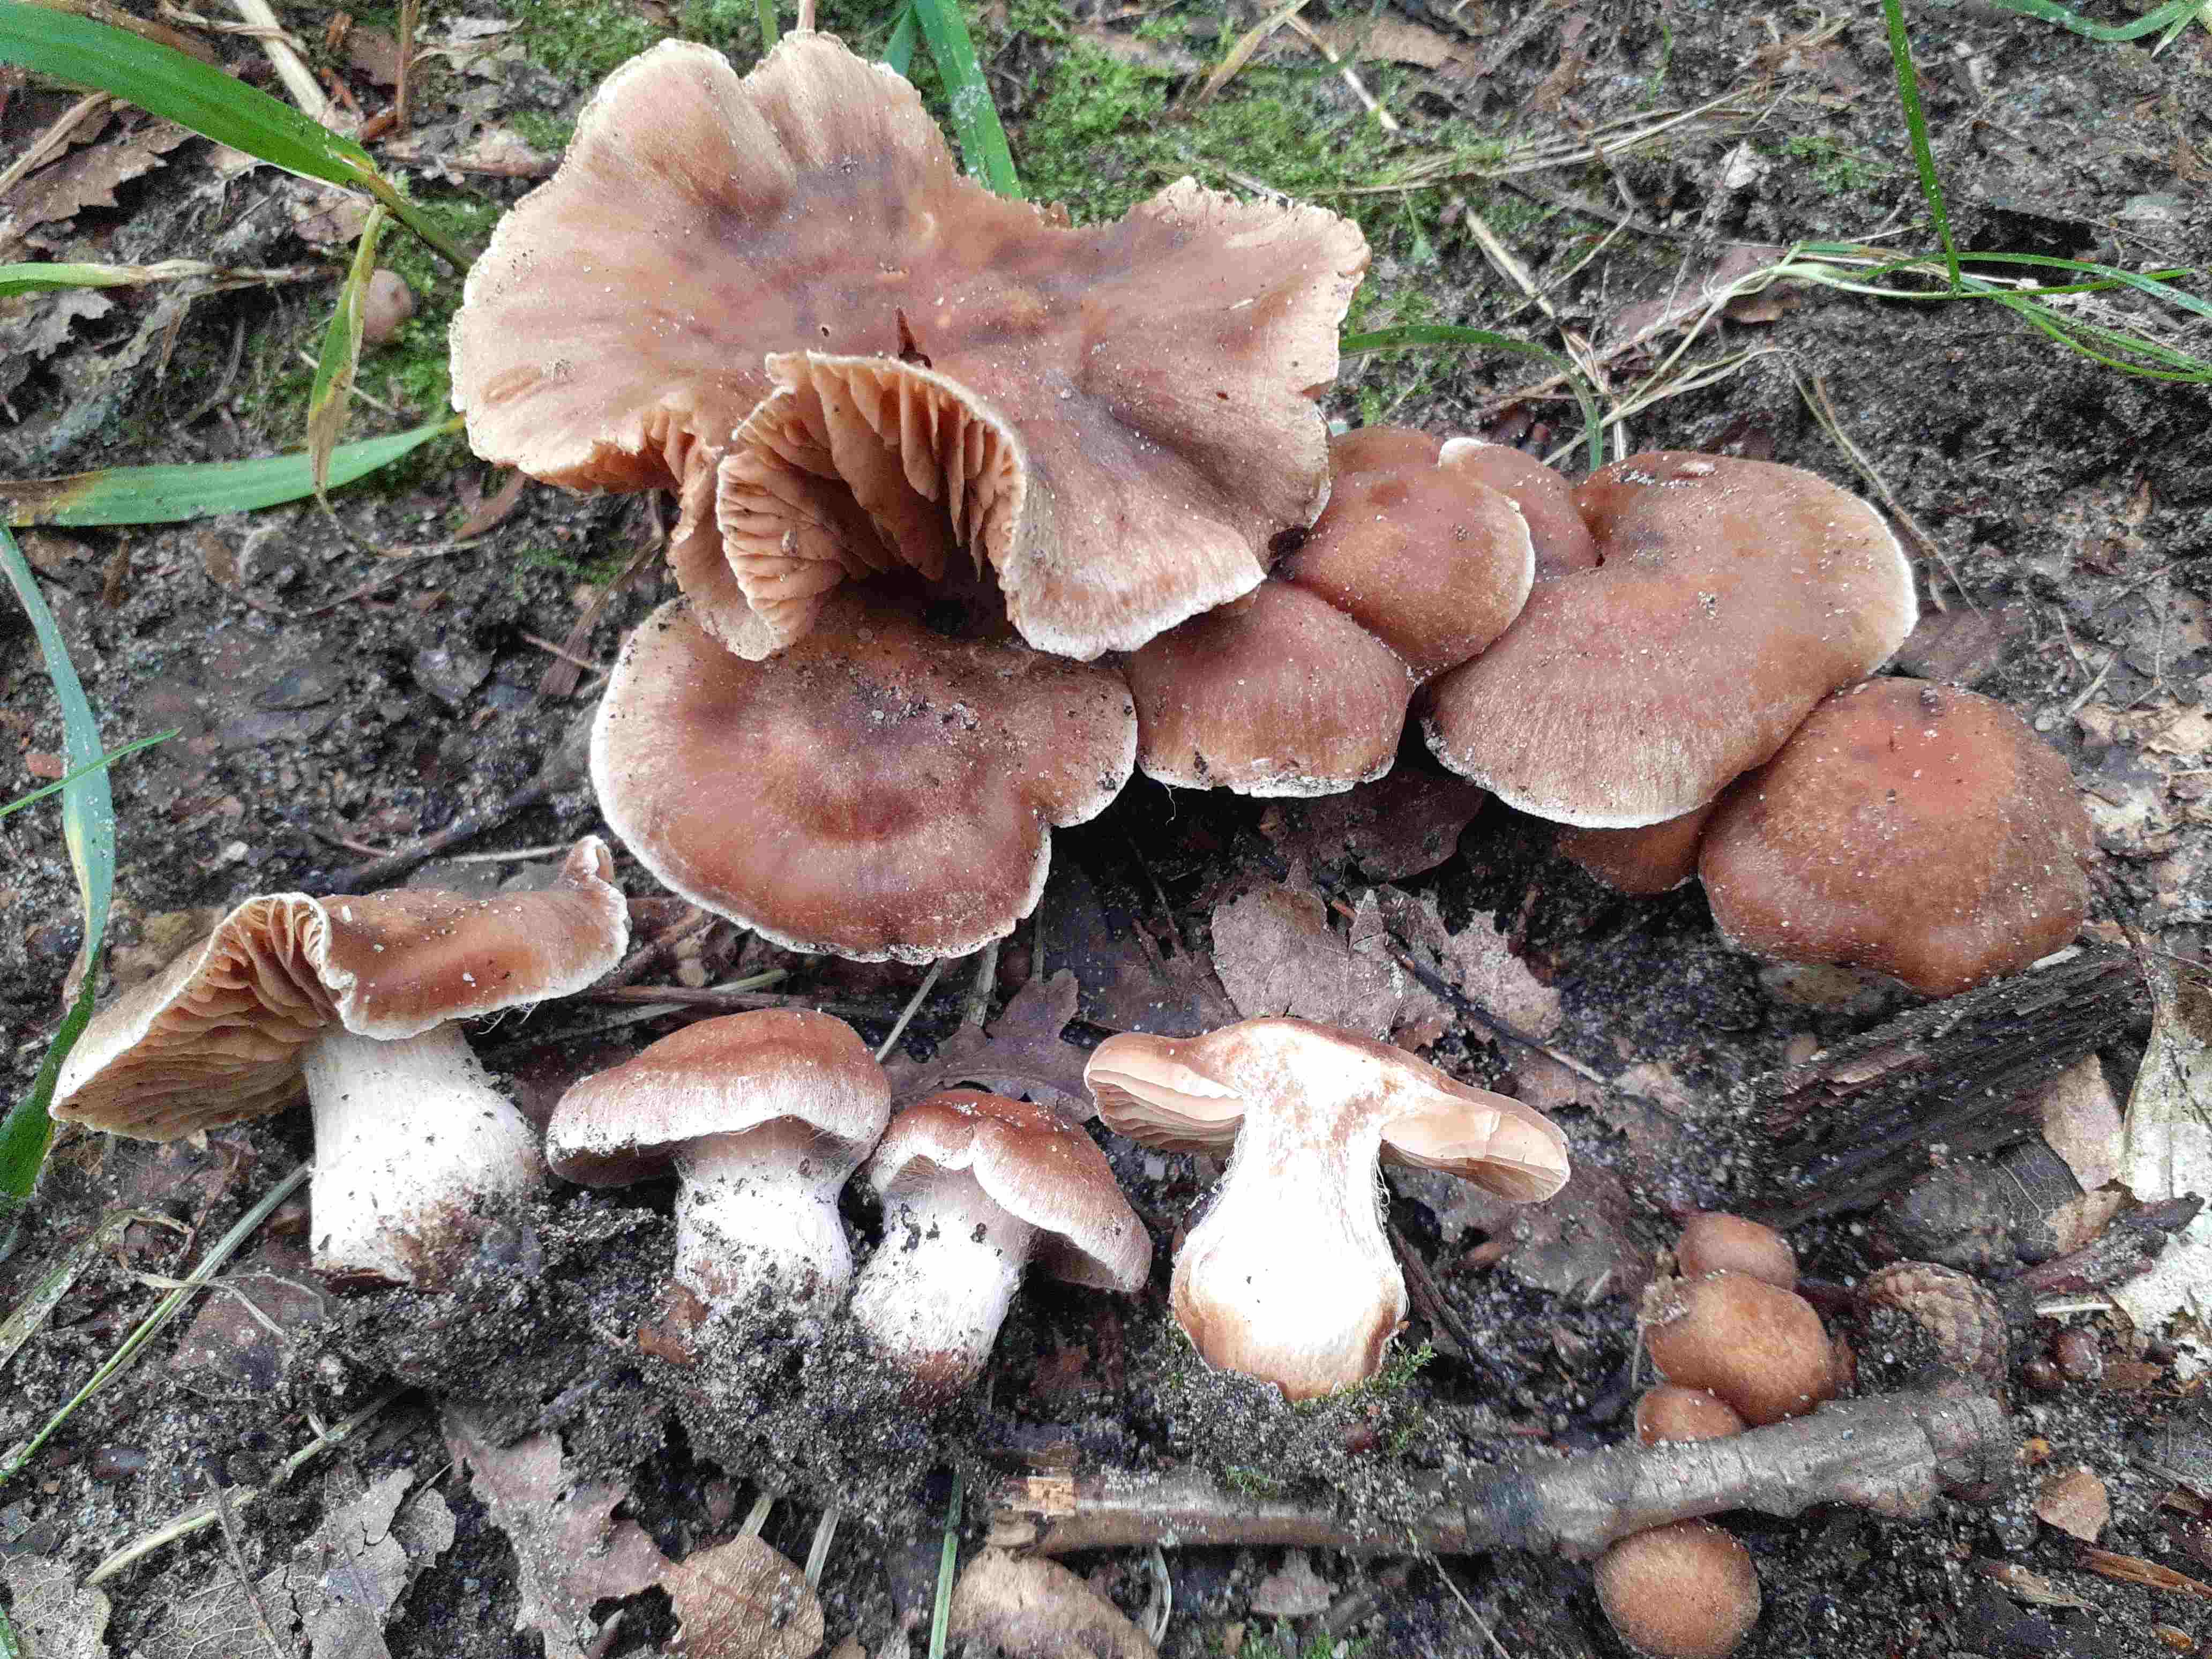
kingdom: Fungi
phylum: Basidiomycota
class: Agaricomycetes
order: Agaricales
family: Cortinariaceae
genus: Cortinarius
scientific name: Cortinarius epipurrus
